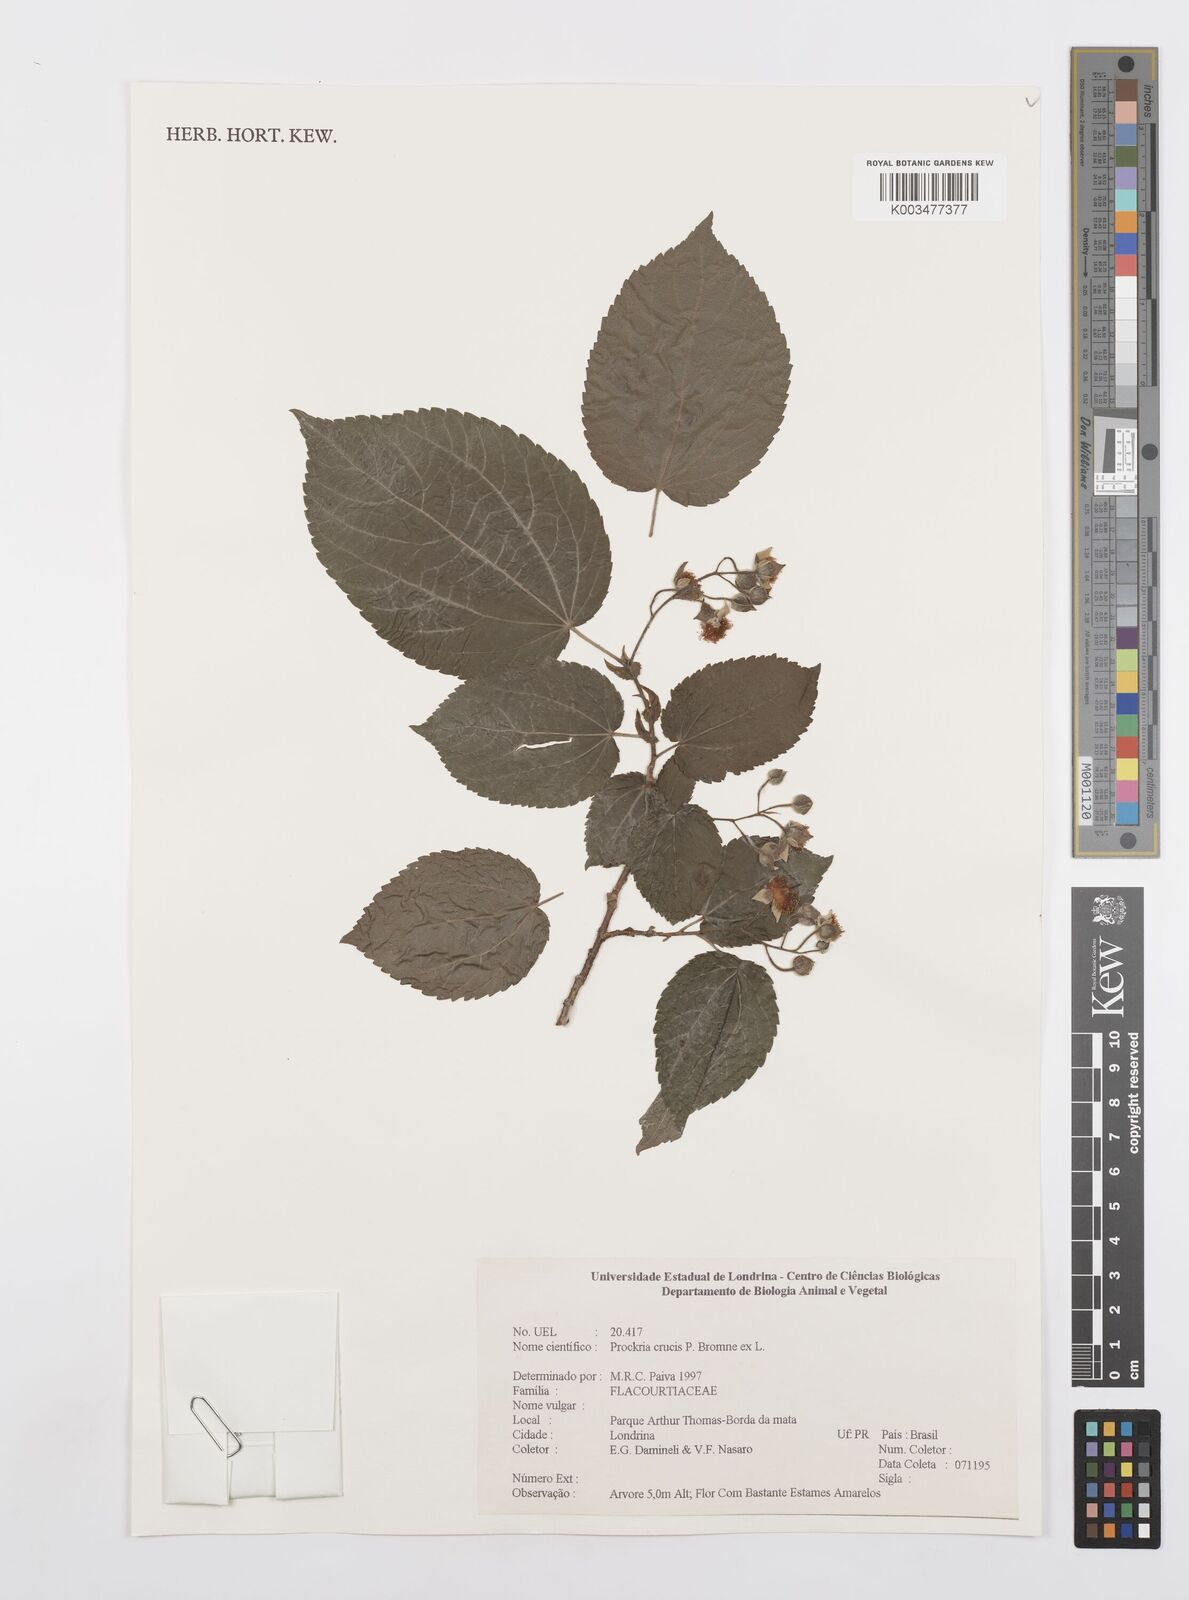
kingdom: Plantae
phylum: Tracheophyta
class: Magnoliopsida
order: Malpighiales
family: Salicaceae
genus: Prockia
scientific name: Prockia crucis
